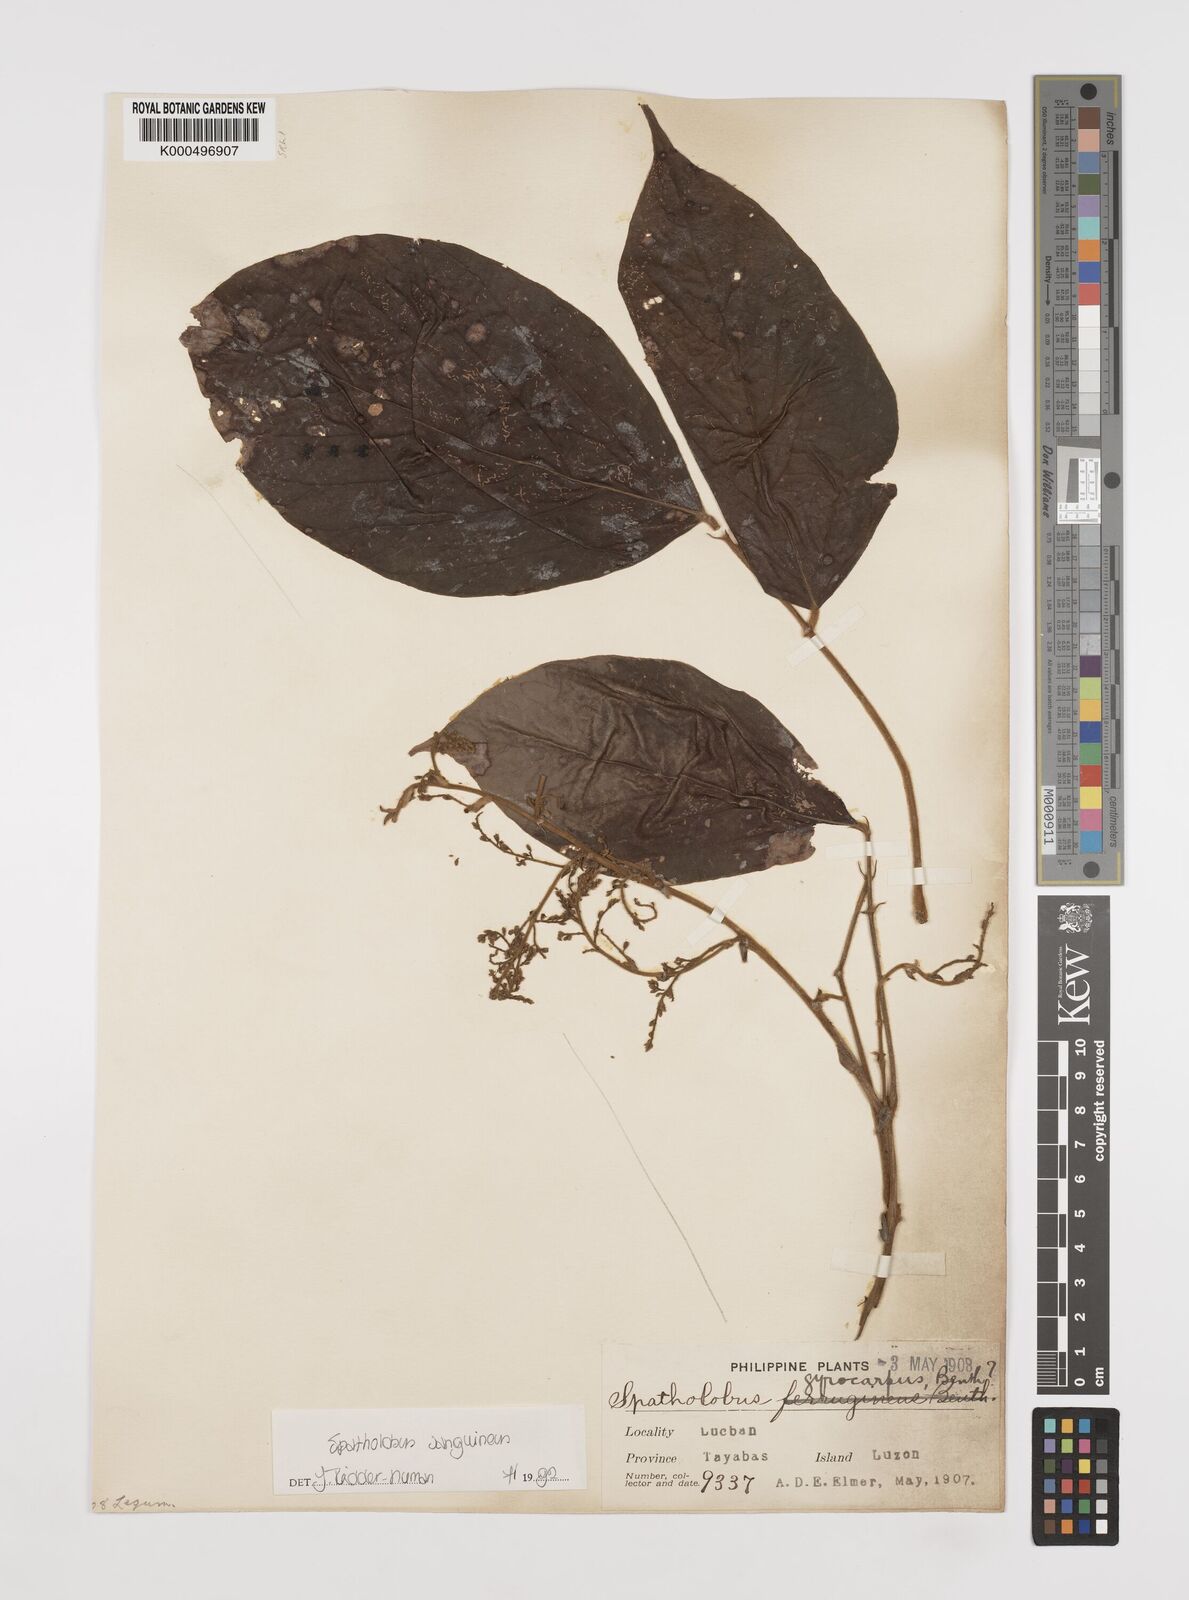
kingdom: Plantae
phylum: Tracheophyta
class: Magnoliopsida
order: Fabales
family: Fabaceae
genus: Spatholobus
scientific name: Spatholobus
